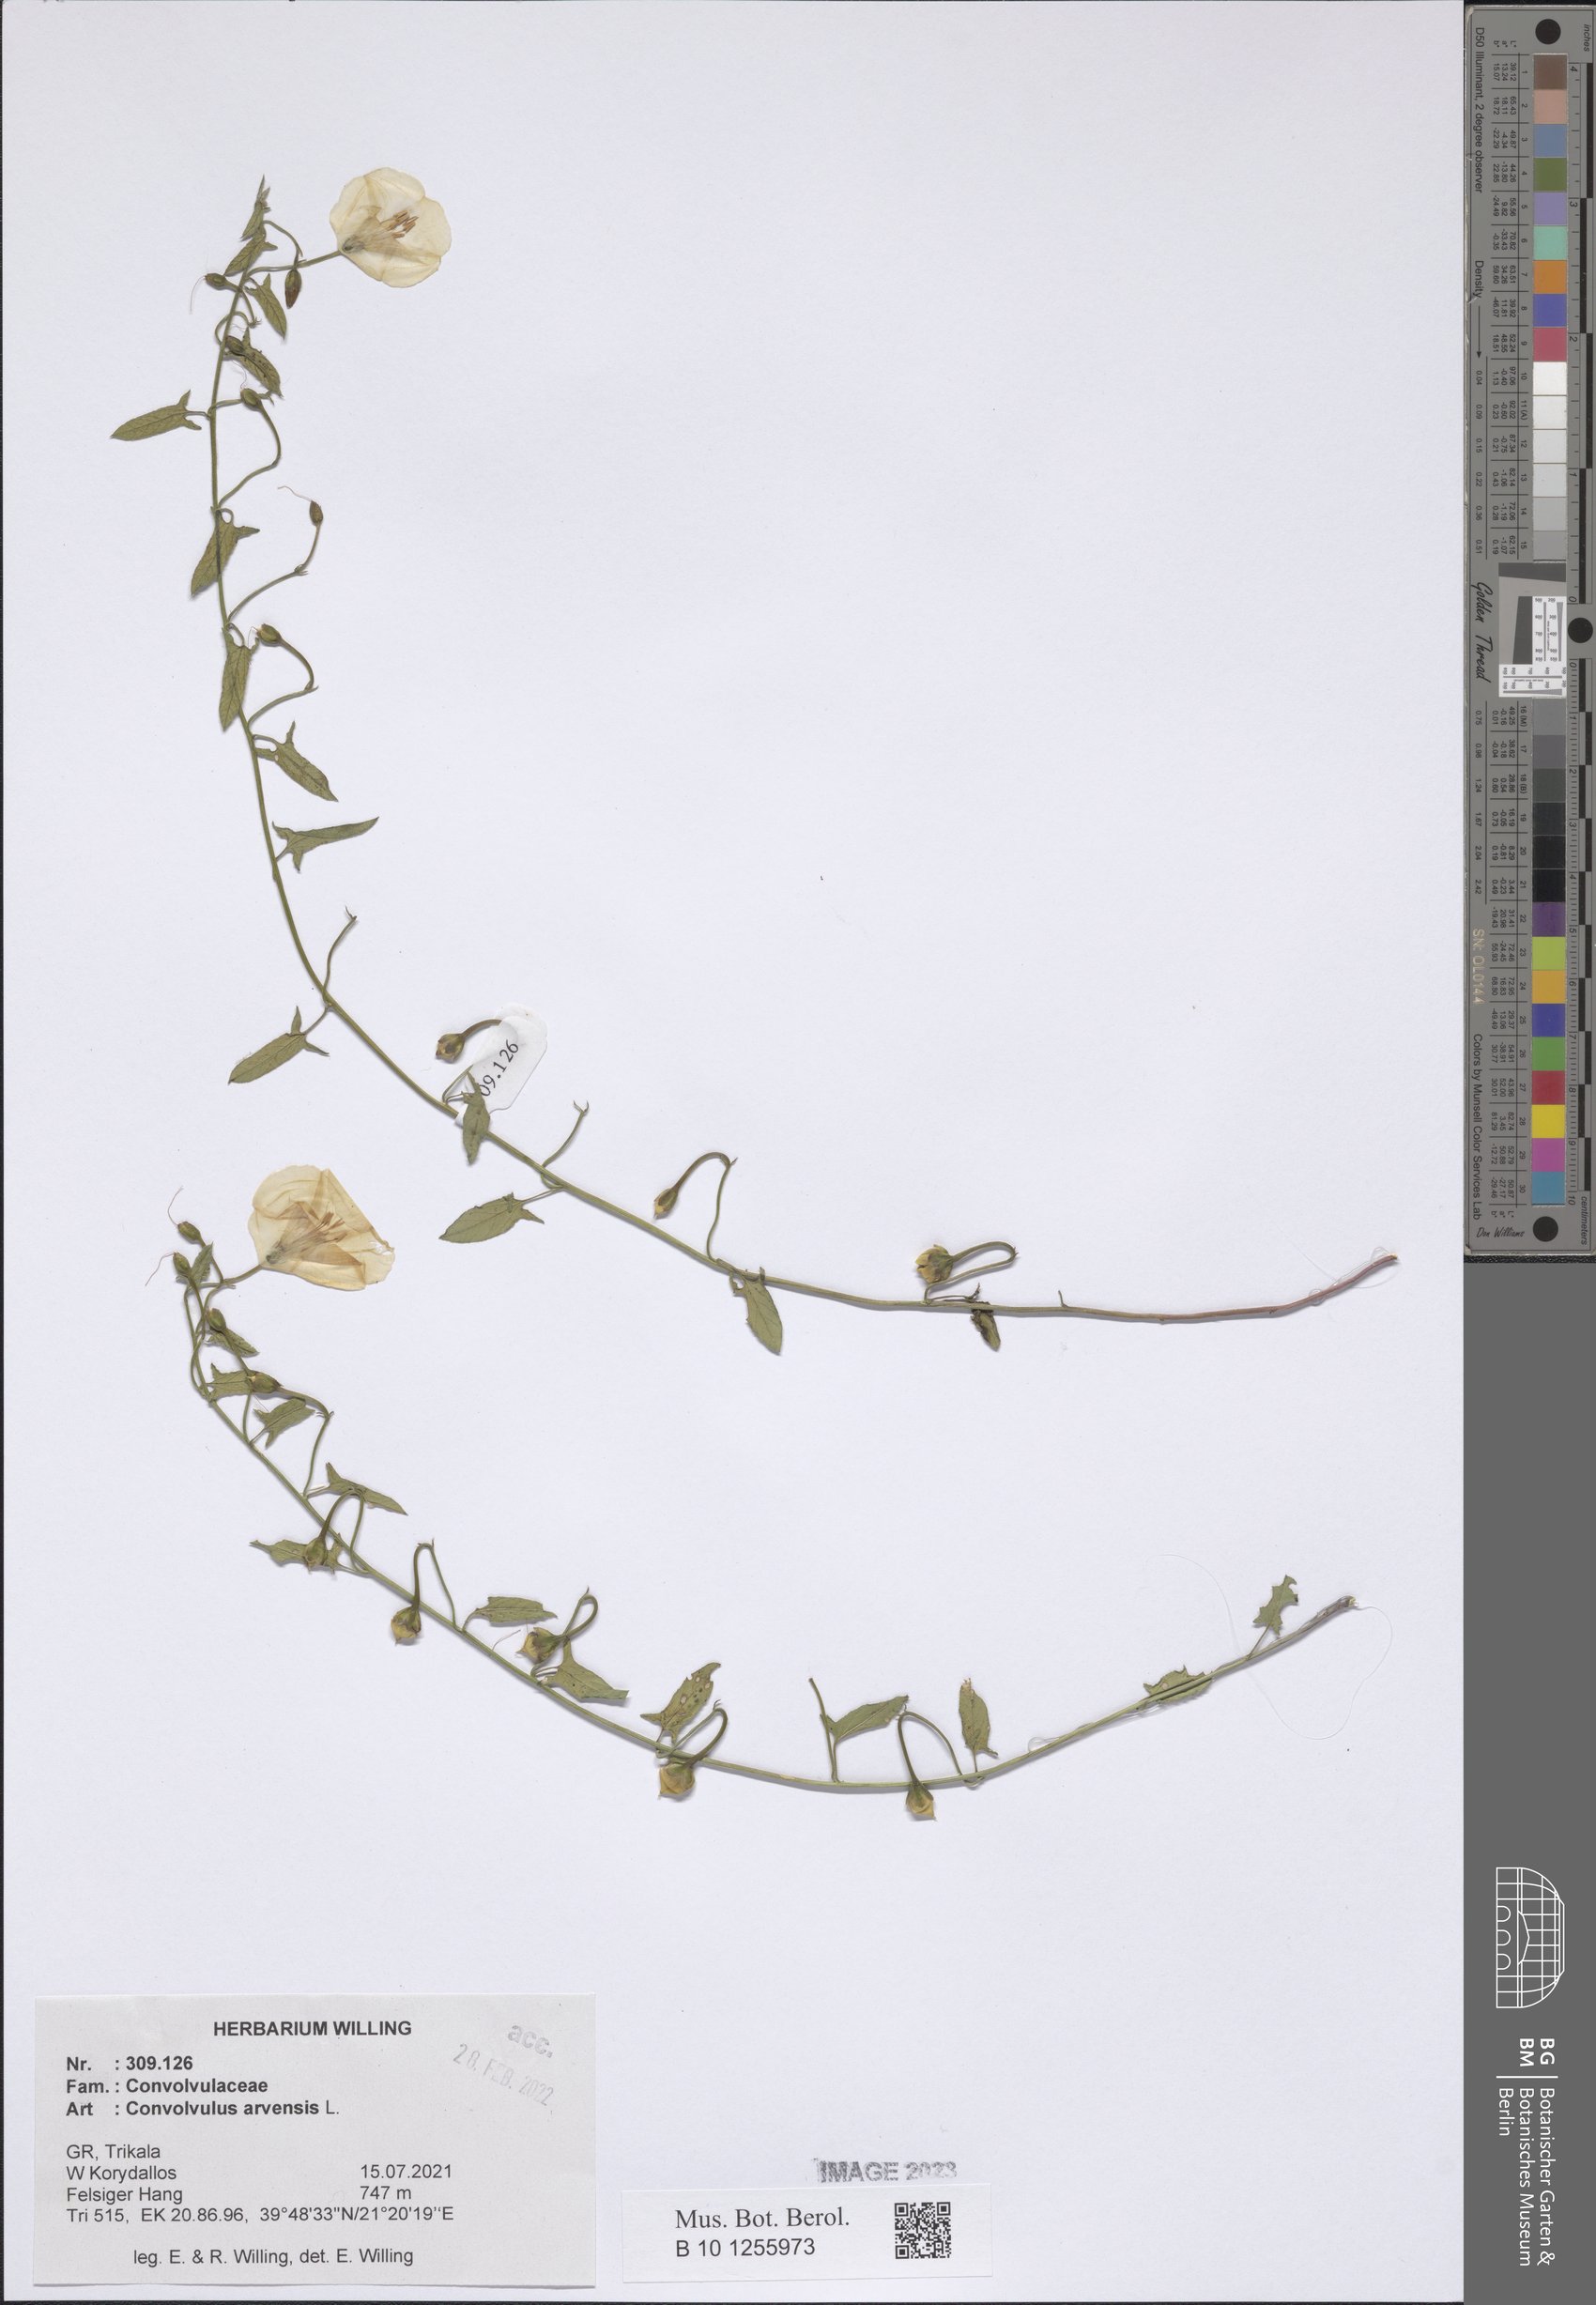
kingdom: Plantae
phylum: Tracheophyta
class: Magnoliopsida
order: Solanales
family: Convolvulaceae
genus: Convolvulus
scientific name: Convolvulus arvensis
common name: Field bindweed
